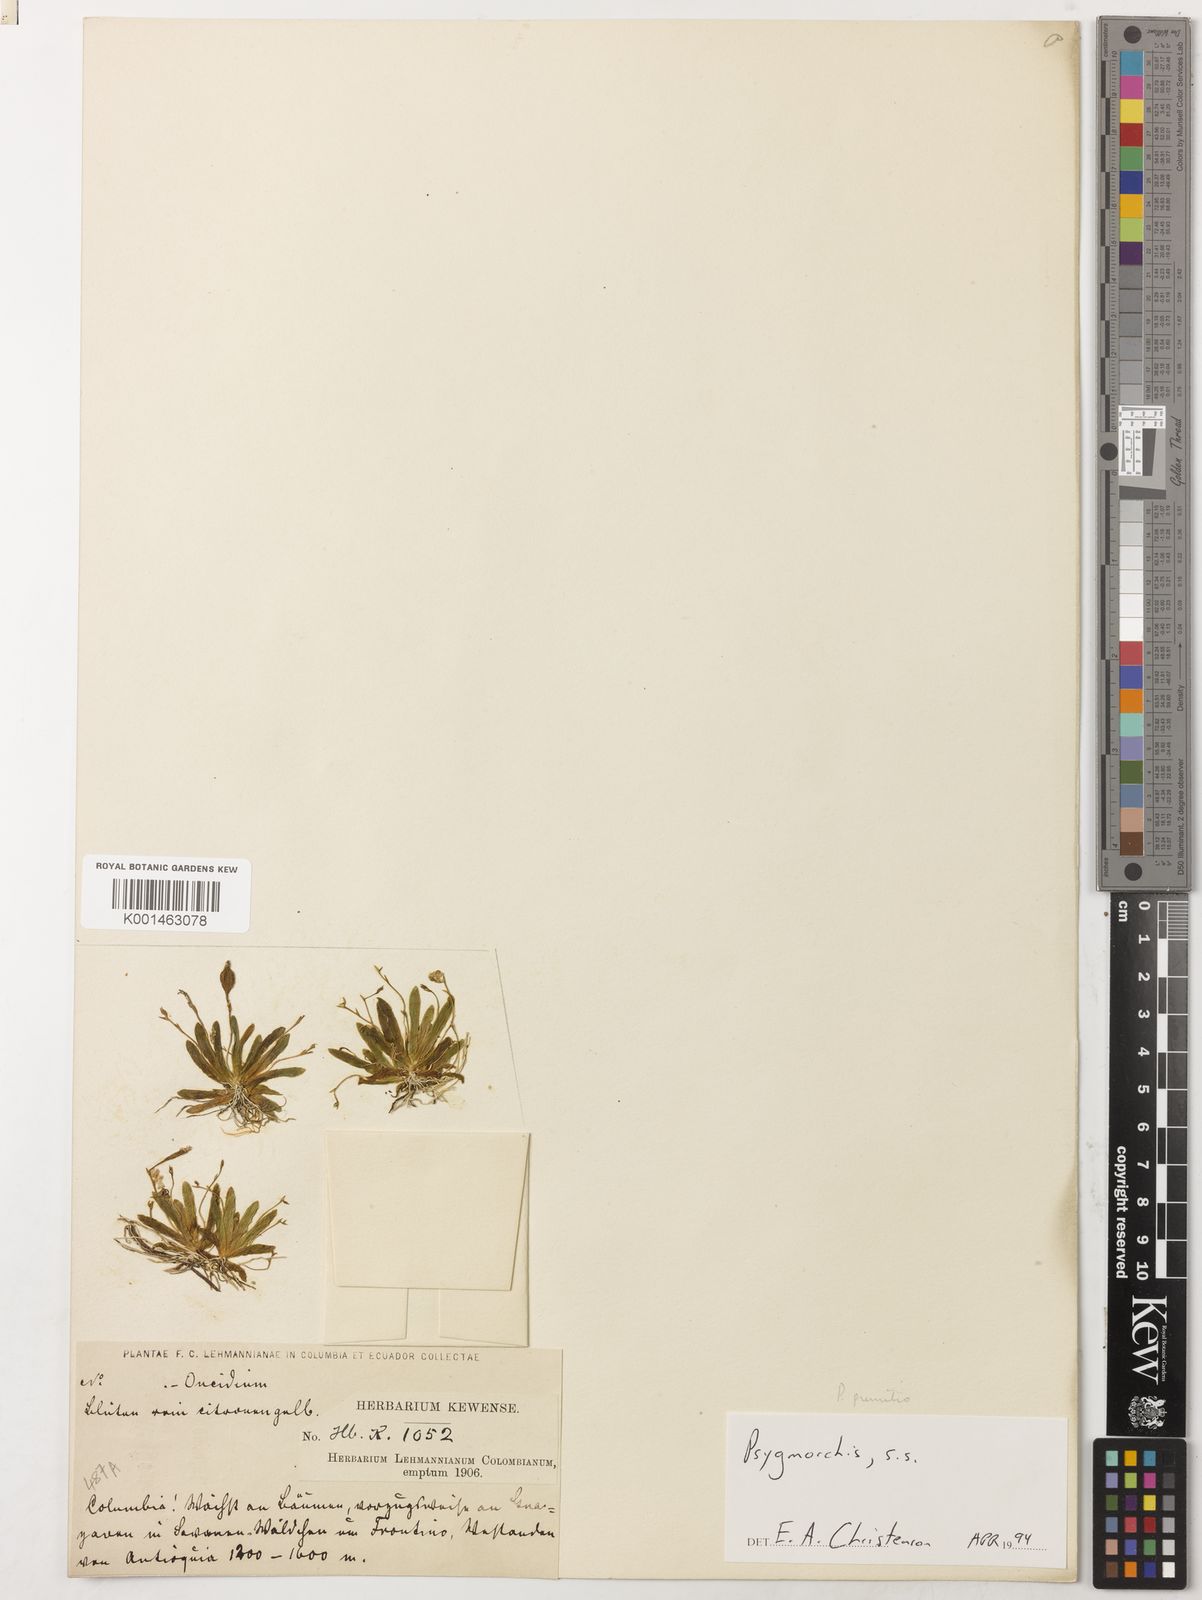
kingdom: Plantae
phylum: Tracheophyta
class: Liliopsida
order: Asparagales
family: Orchidaceae
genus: Erycina
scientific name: Erycina pumilio
